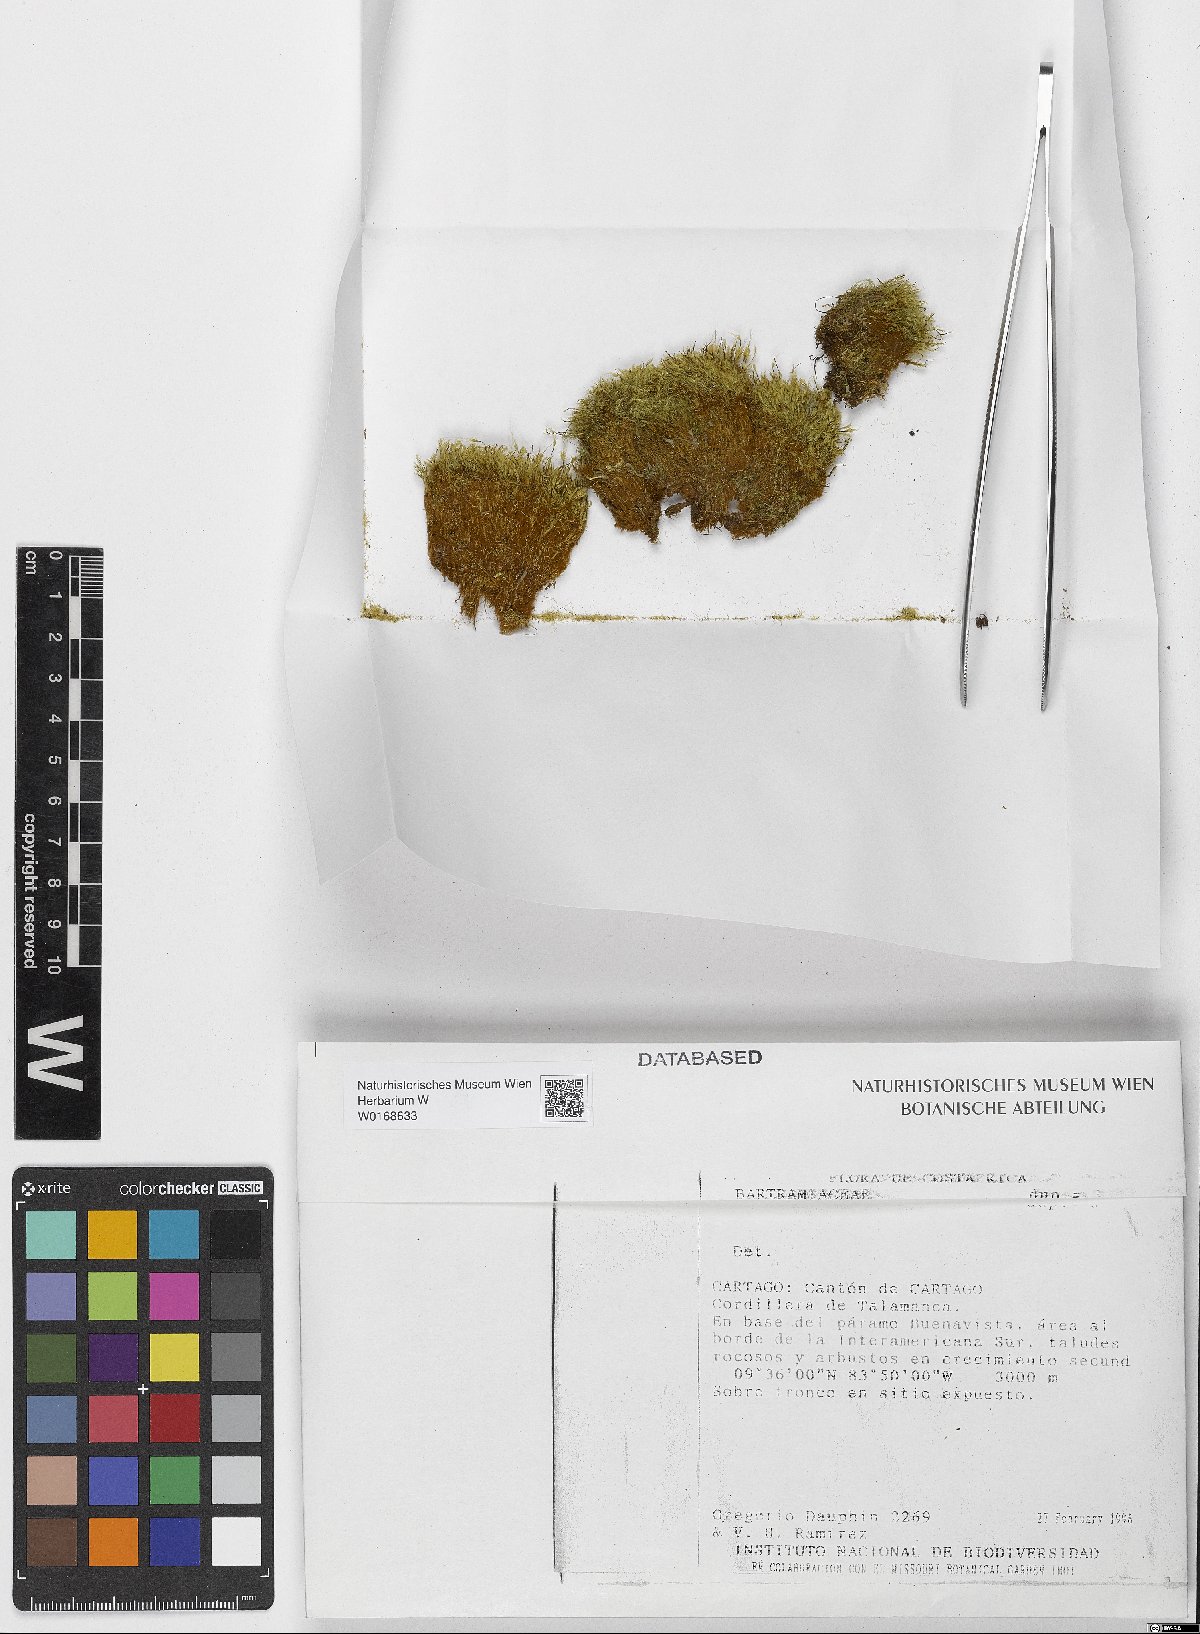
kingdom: Plantae
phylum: Bryophyta
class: Bryopsida
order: Bartramiales
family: Bartramiaceae
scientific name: Bartramiaceae
